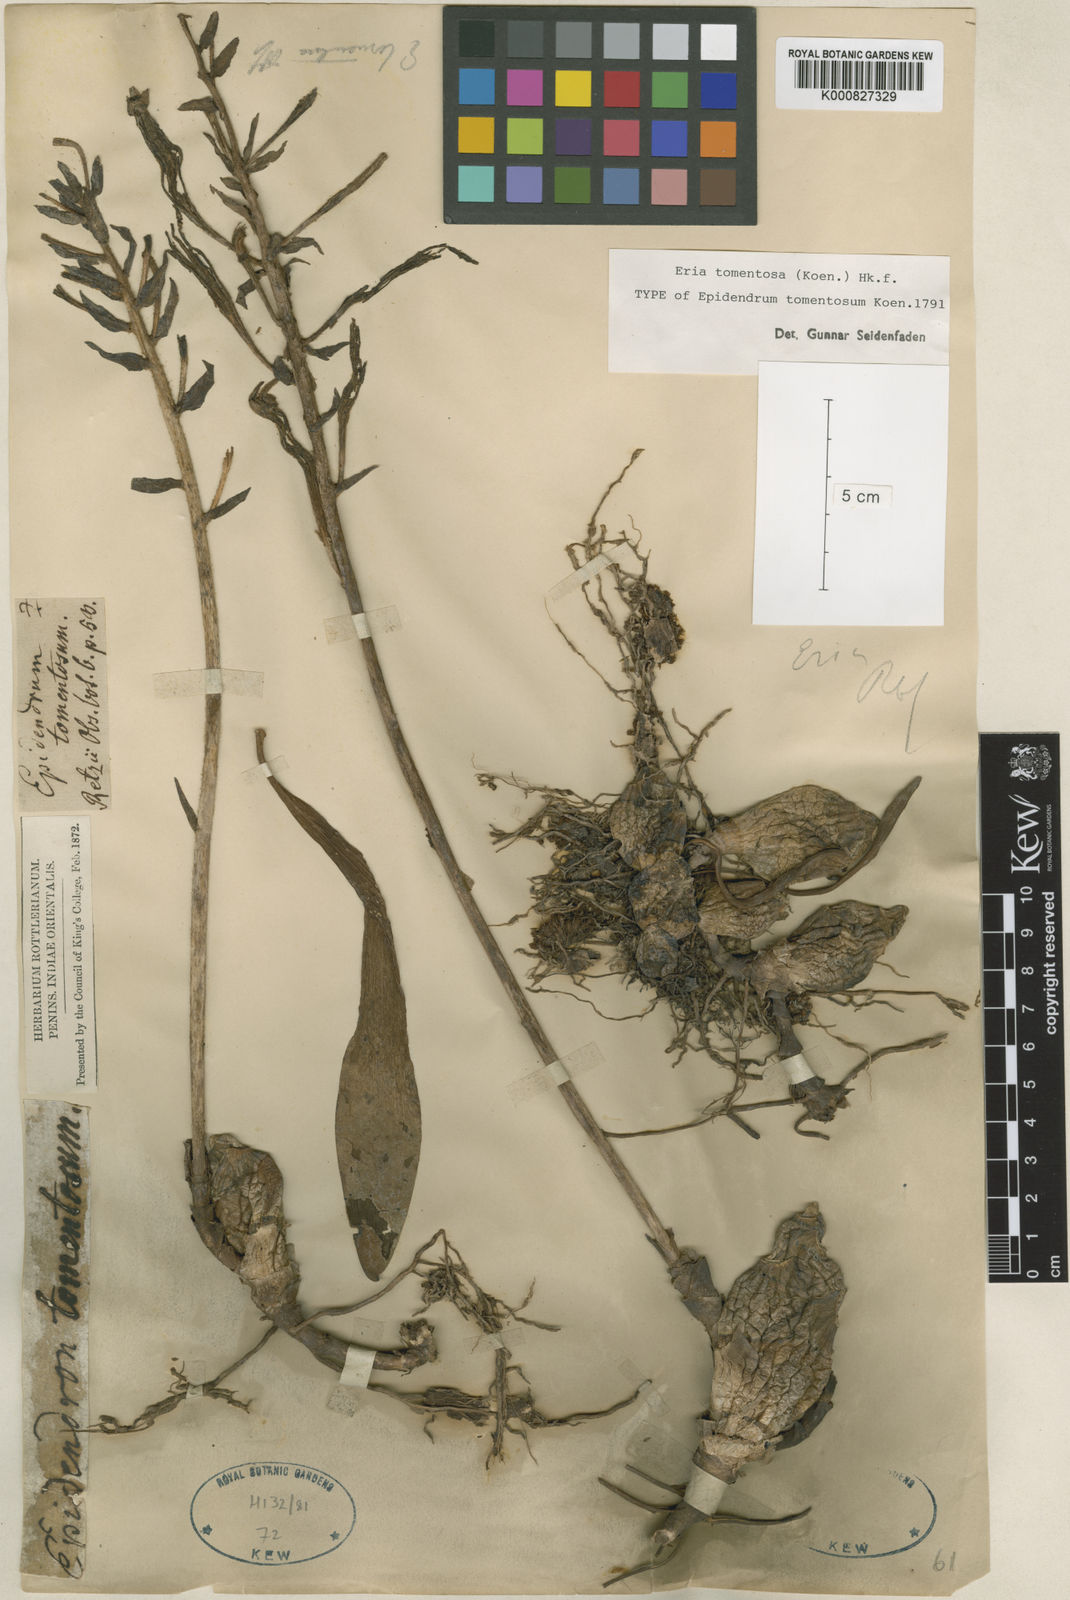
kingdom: Plantae
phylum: Tracheophyta
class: Liliopsida
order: Asparagales
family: Orchidaceae
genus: Dendrolirium
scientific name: Dendrolirium tomentosum
